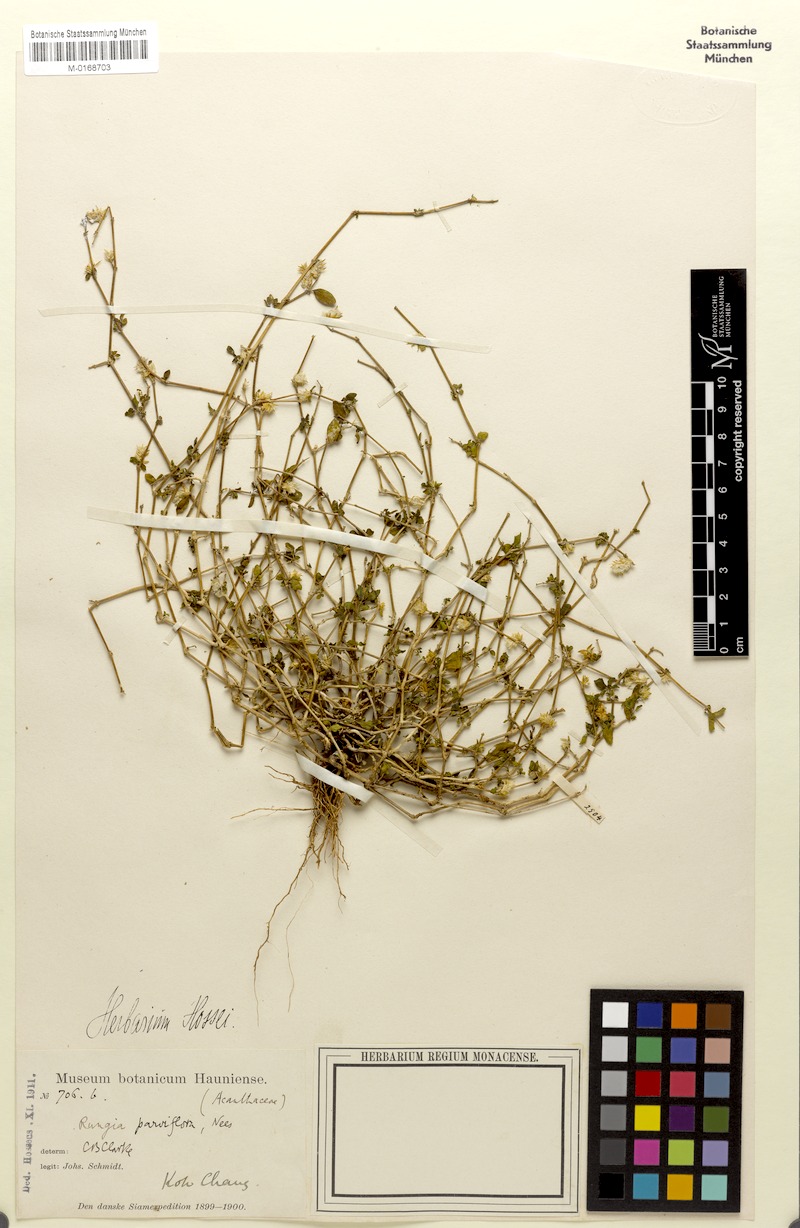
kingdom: Plantae
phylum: Tracheophyta
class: Magnoliopsida
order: Lamiales
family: Acanthaceae
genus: Rungia
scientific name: Rungia parviflora
